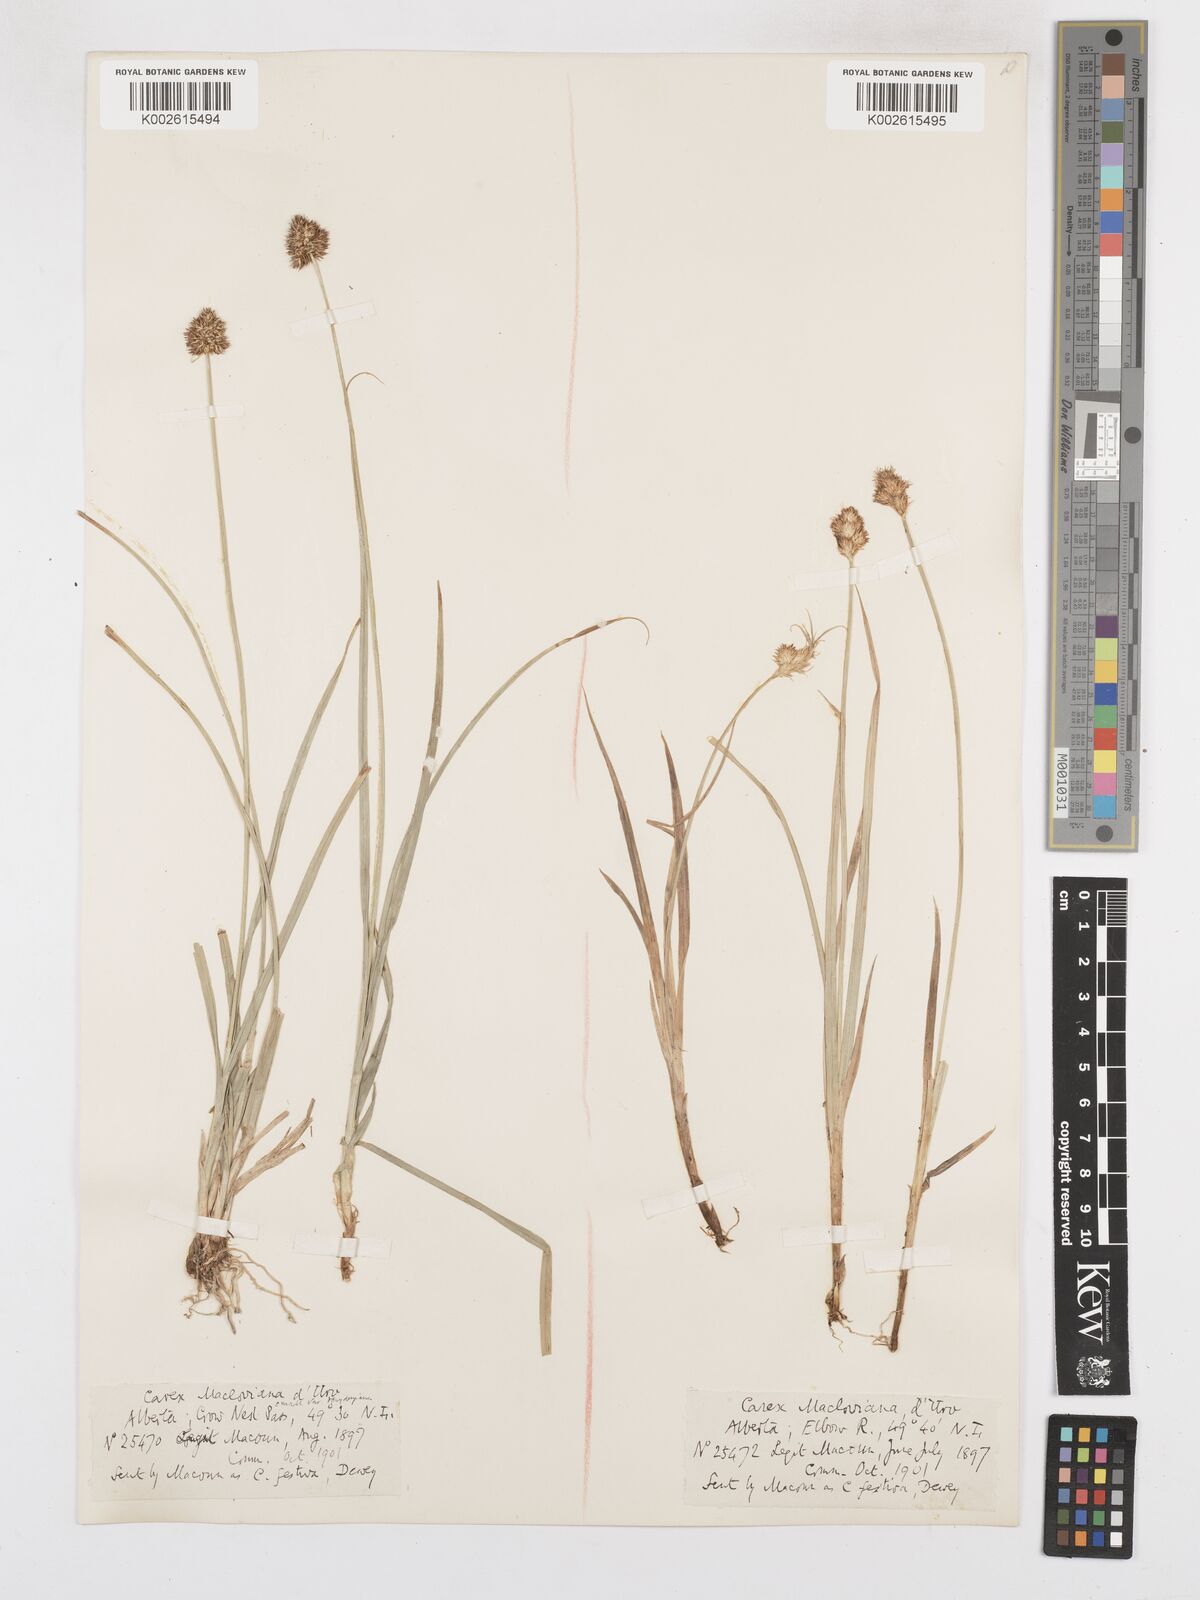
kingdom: Plantae
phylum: Tracheophyta
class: Liliopsida
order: Poales
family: Cyperaceae
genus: Carex
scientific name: Carex macloviana
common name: Falkland island sedge
